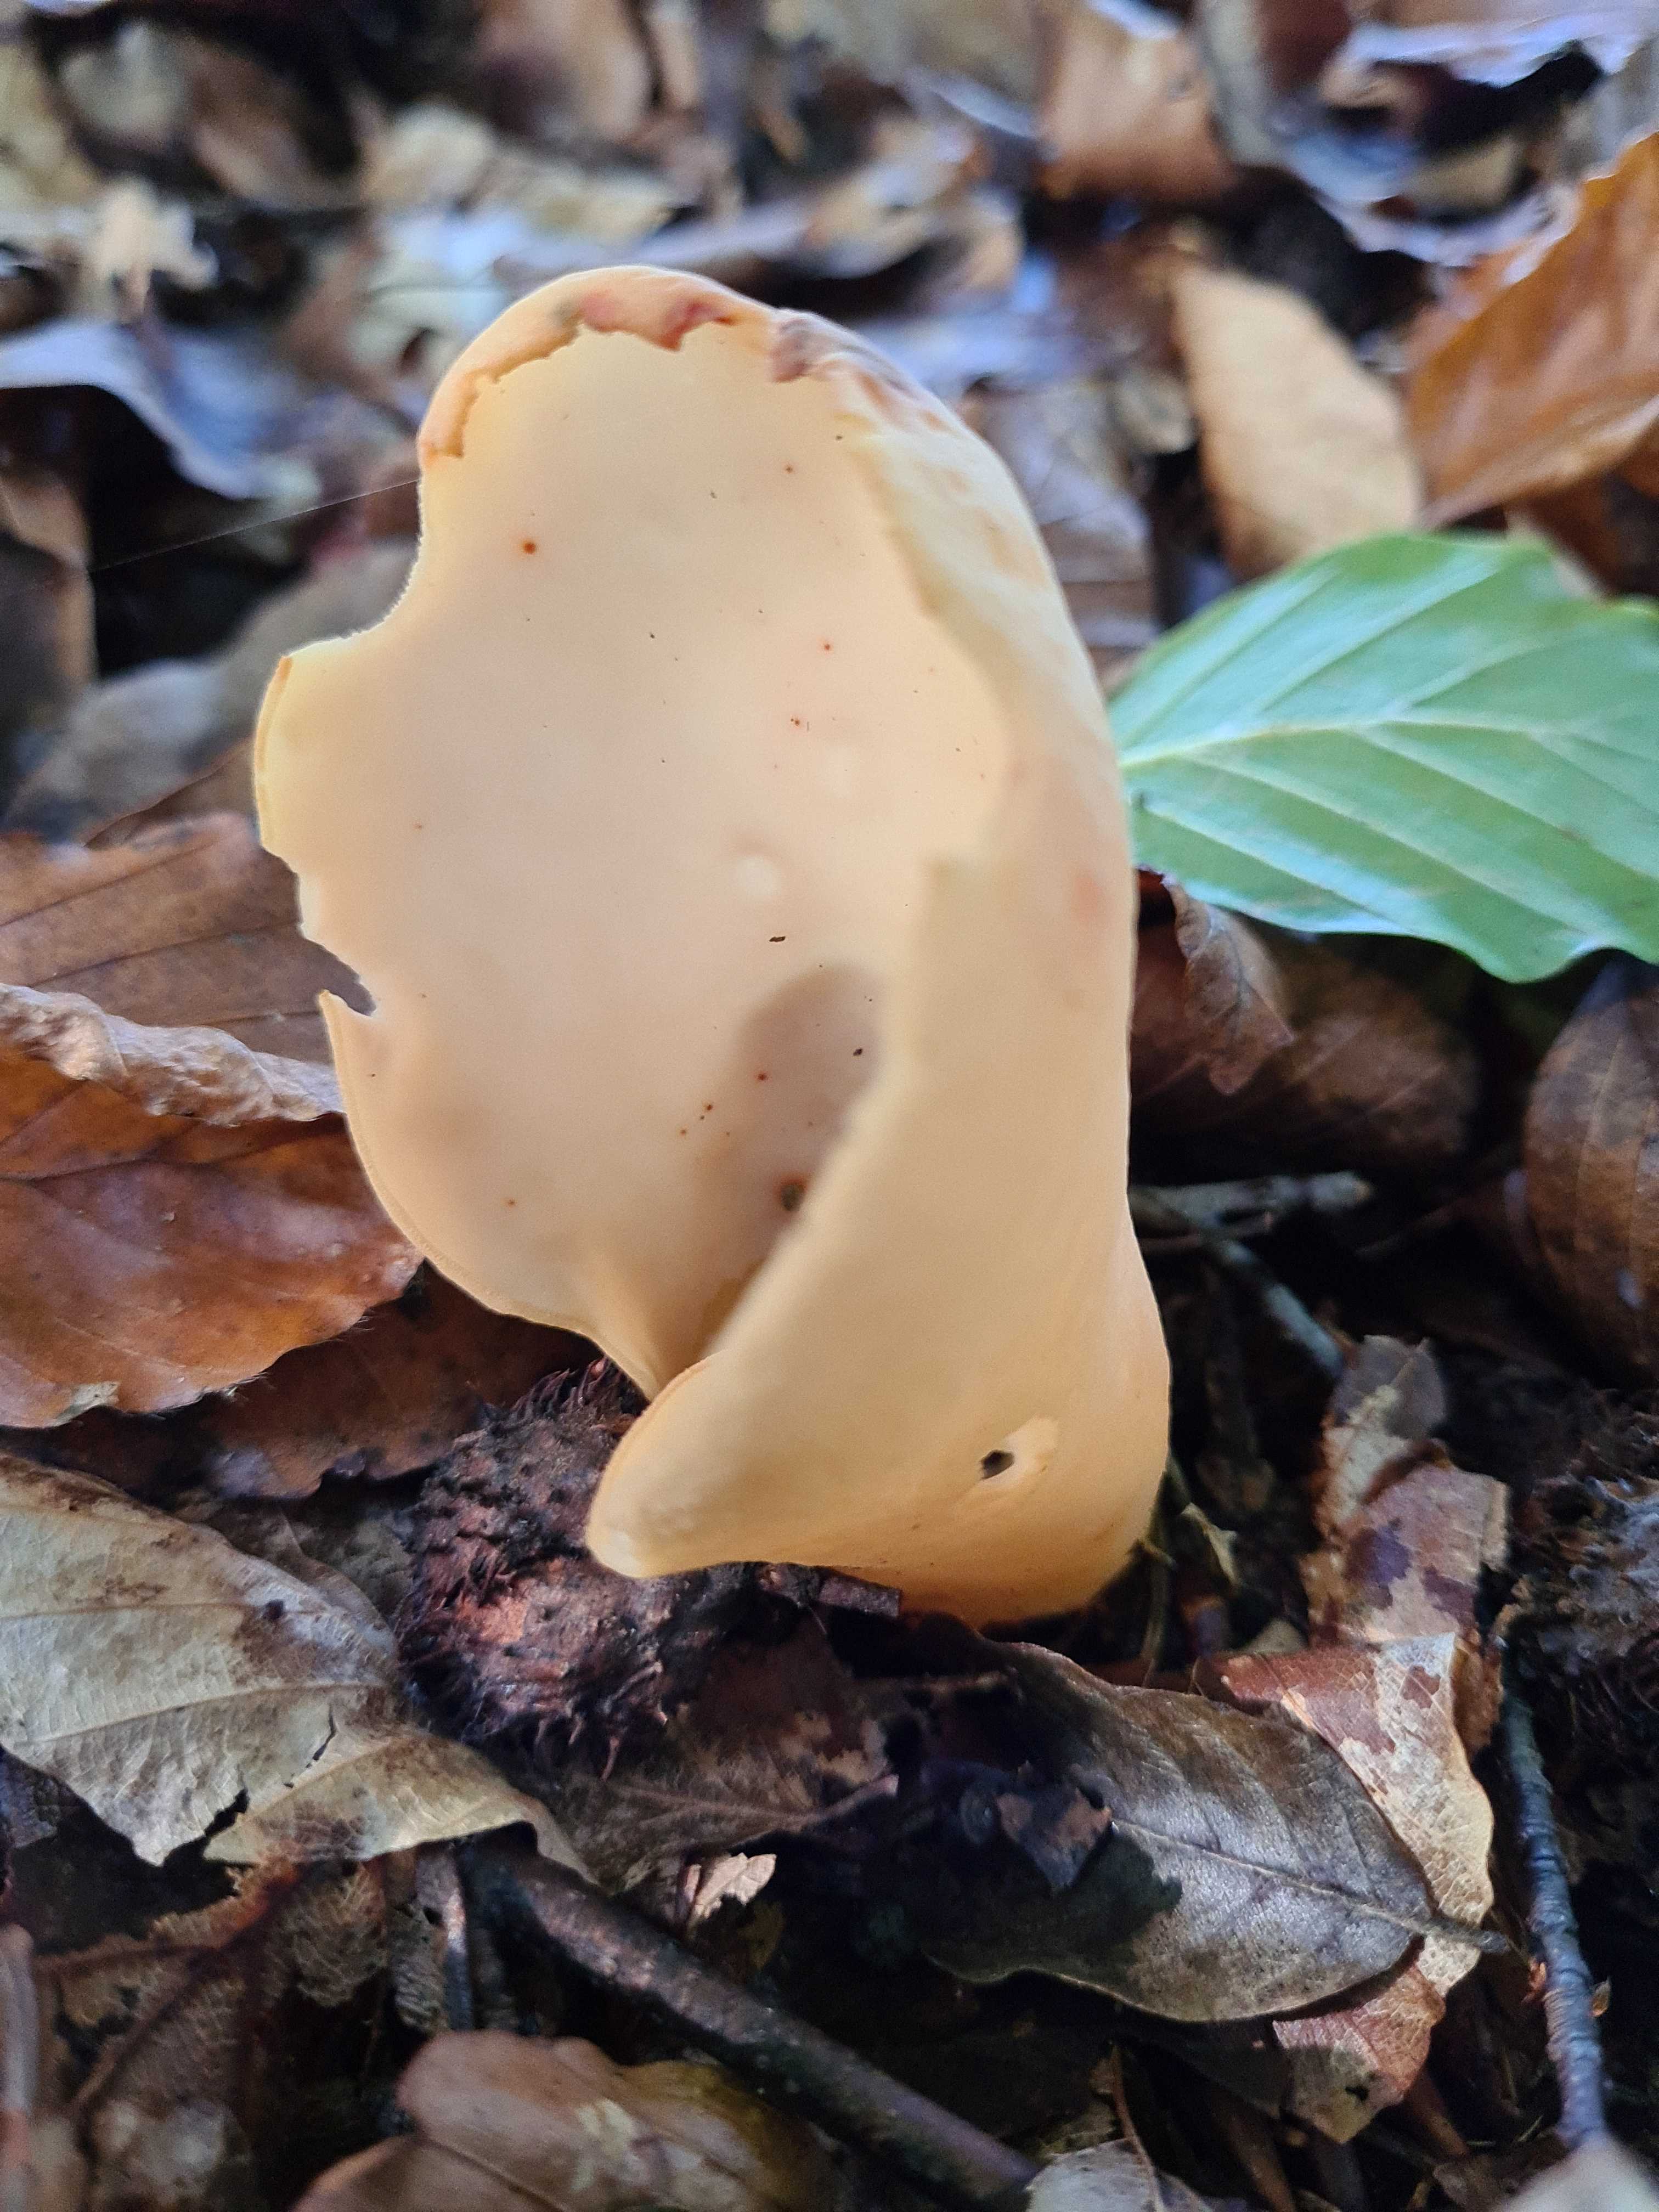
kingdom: Fungi
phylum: Ascomycota
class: Pezizomycetes
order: Pezizales
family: Otideaceae
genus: Otidea
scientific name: Otidea
